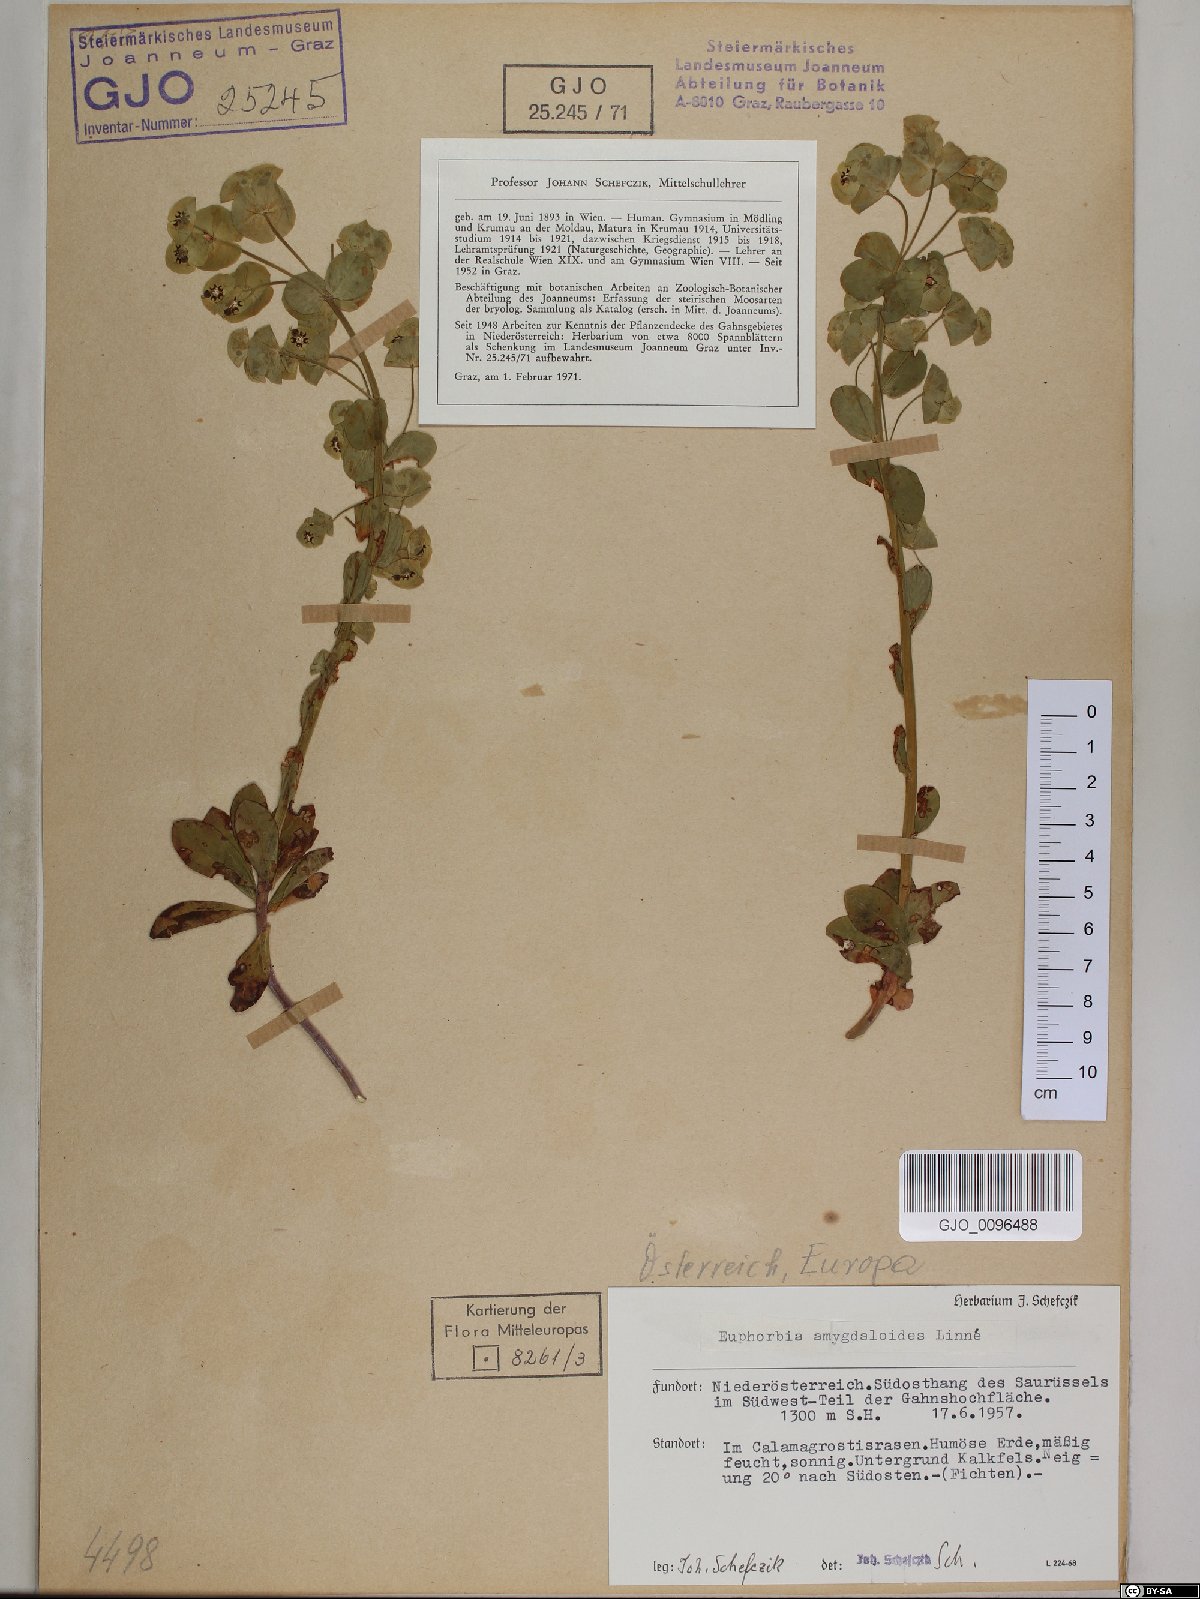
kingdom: Plantae
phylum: Tracheophyta
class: Magnoliopsida
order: Malpighiales
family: Euphorbiaceae
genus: Euphorbia
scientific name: Euphorbia amygdaloides
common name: Wood spurge
